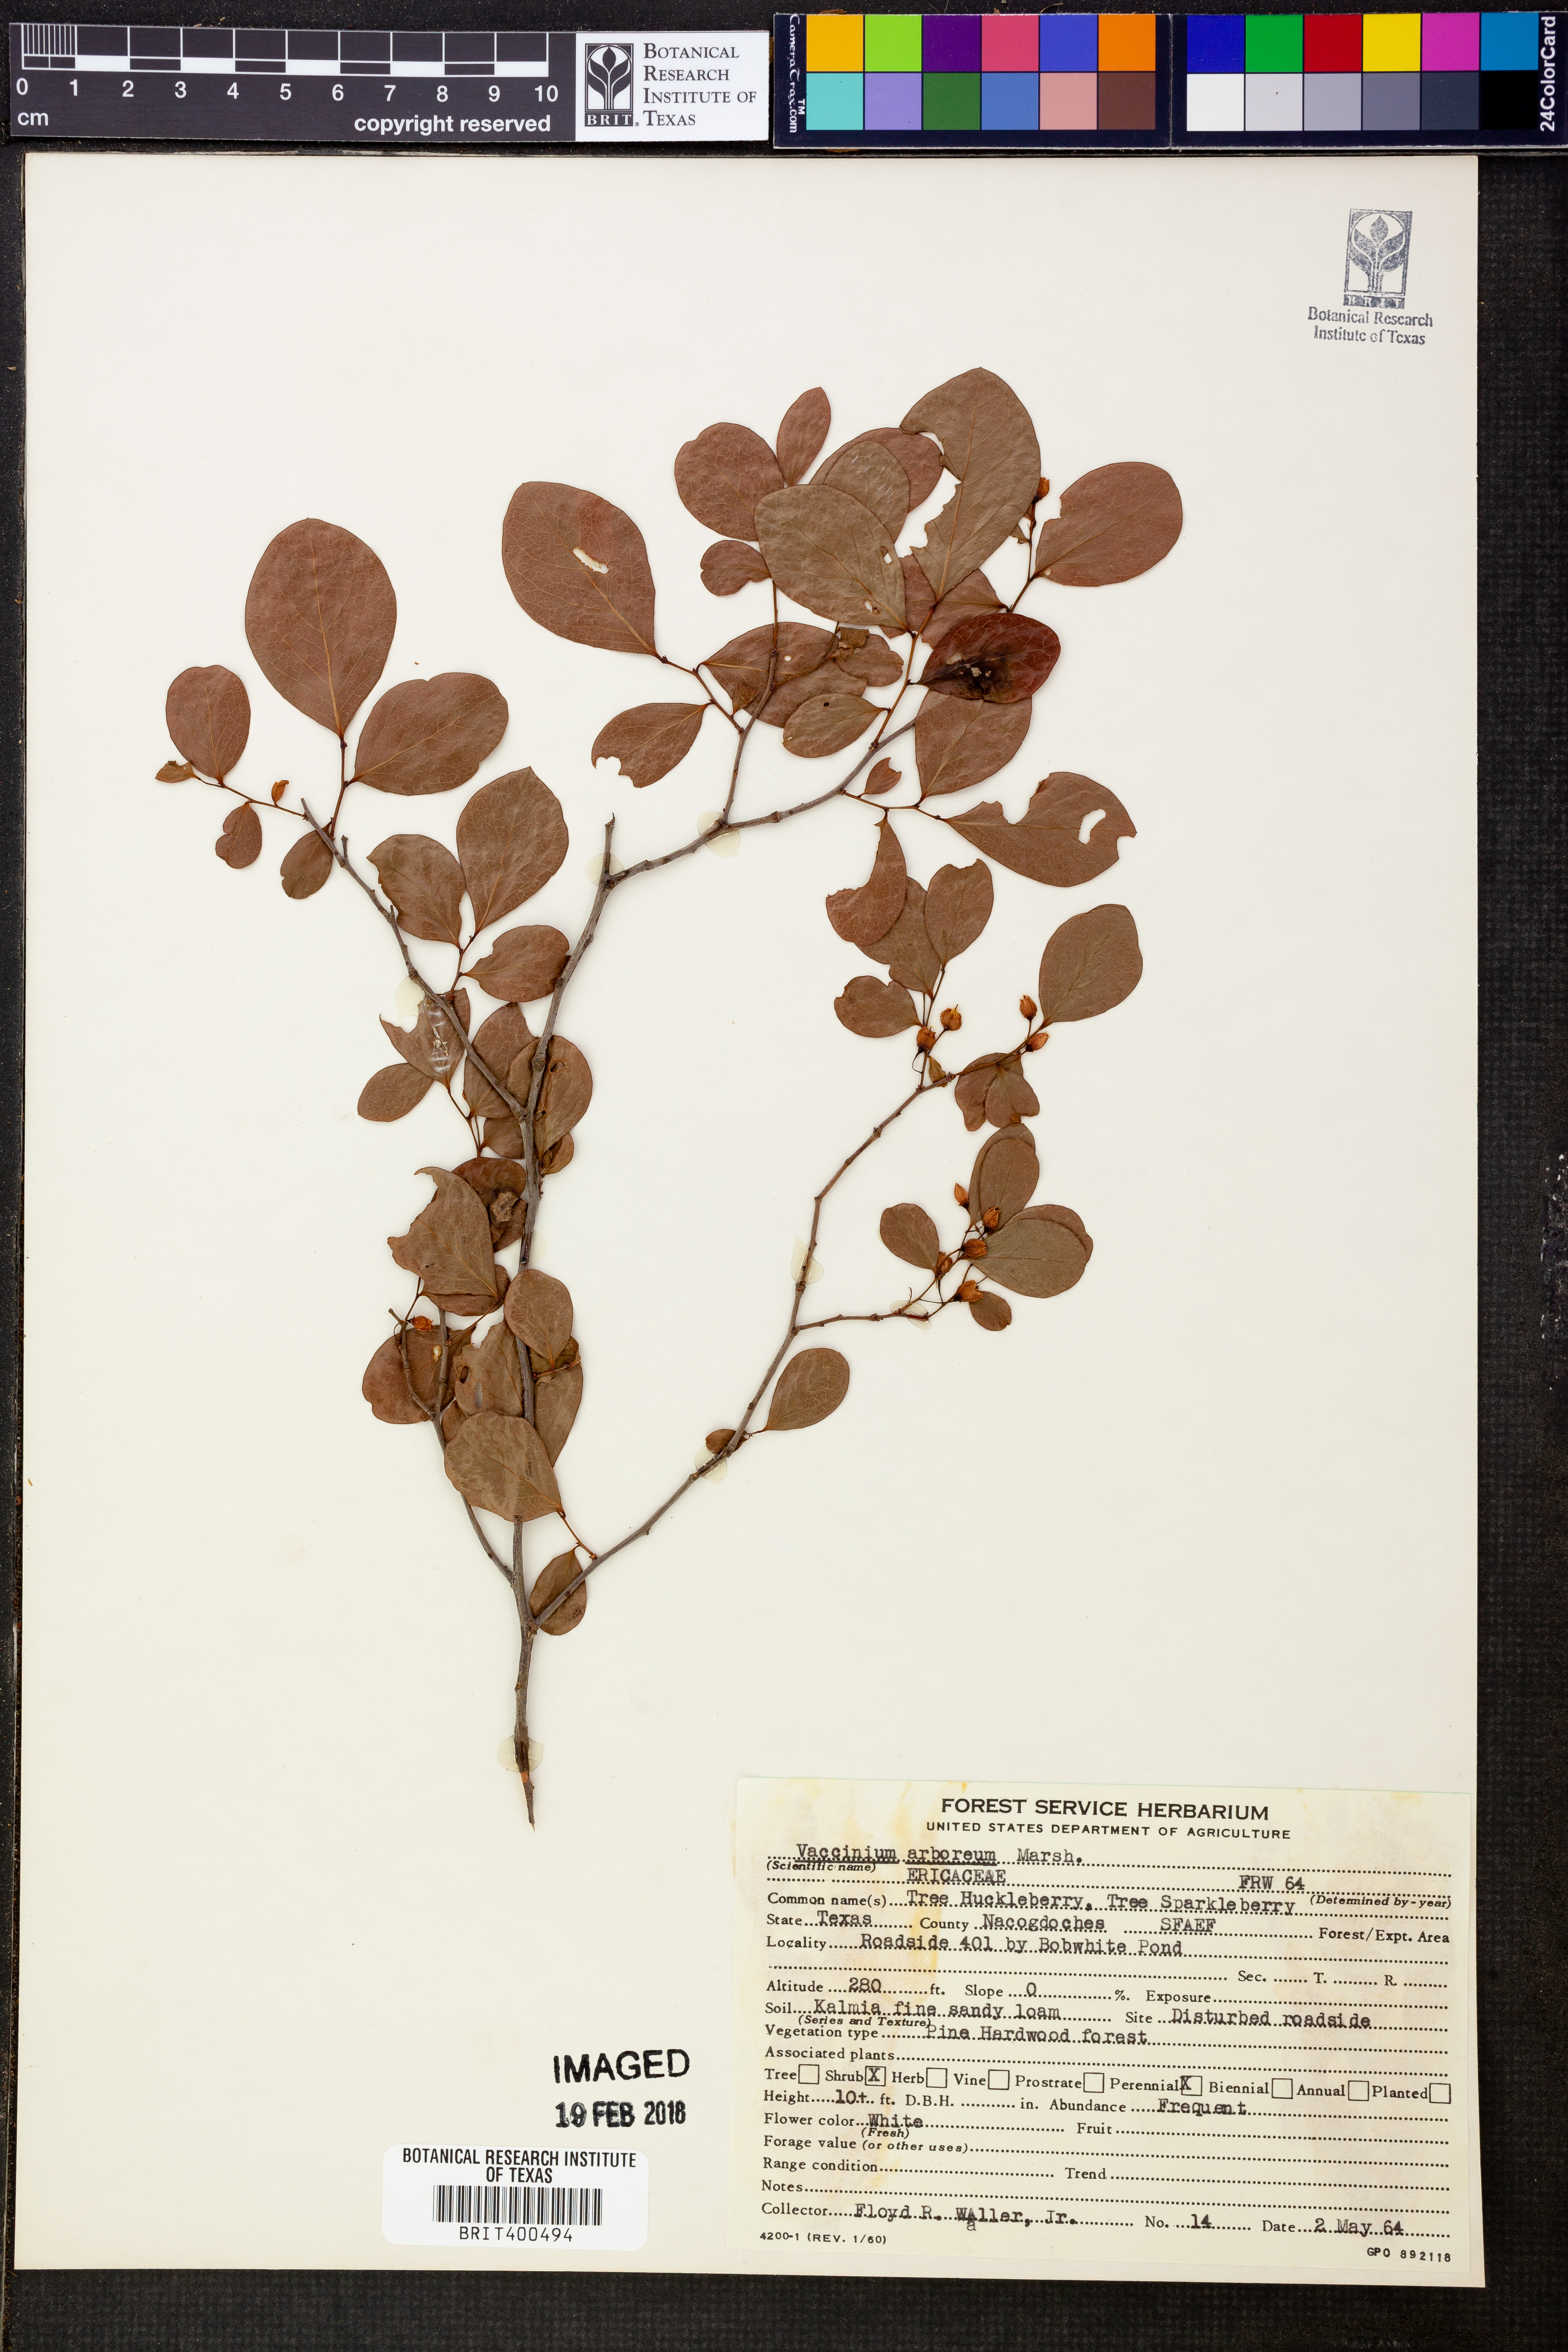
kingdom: Plantae
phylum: Tracheophyta
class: Magnoliopsida
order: Ericales
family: Ericaceae
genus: Vaccinium
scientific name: Vaccinium arboreum
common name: Farkleberry
